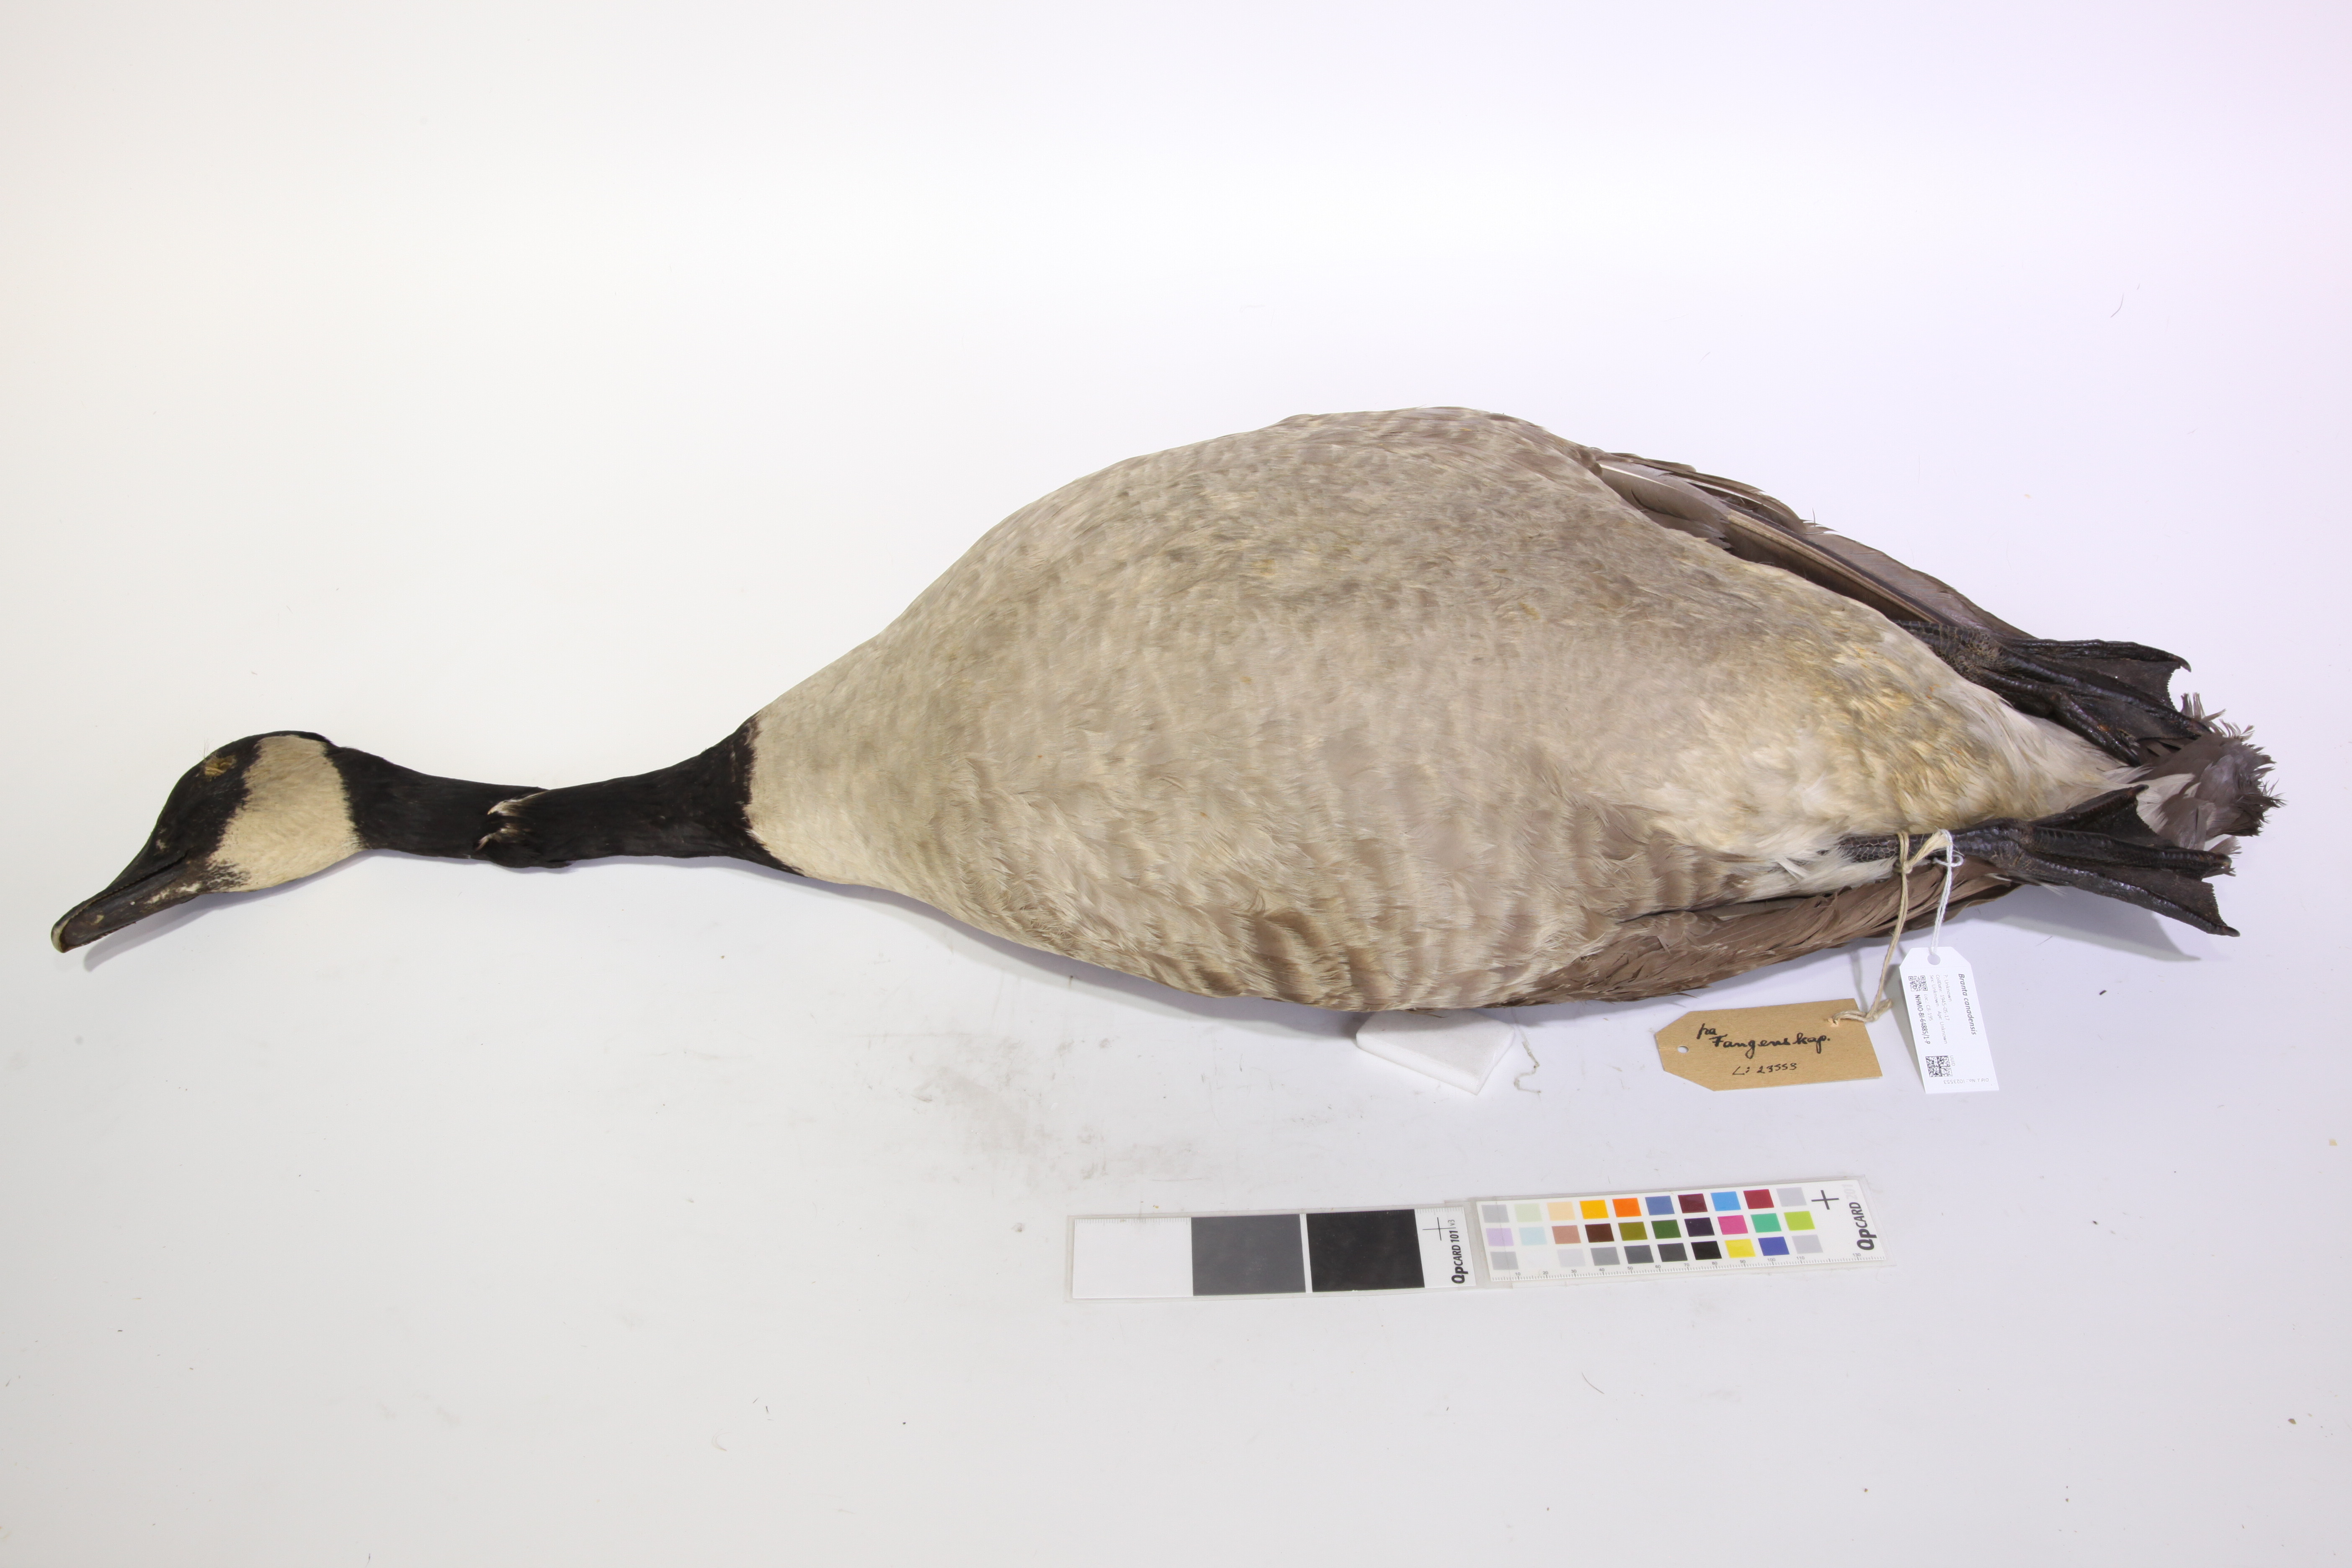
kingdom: Animalia
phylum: Chordata
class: Aves
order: Anseriformes
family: Anatidae
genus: Branta
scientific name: Branta canadensis
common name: Canada goose
